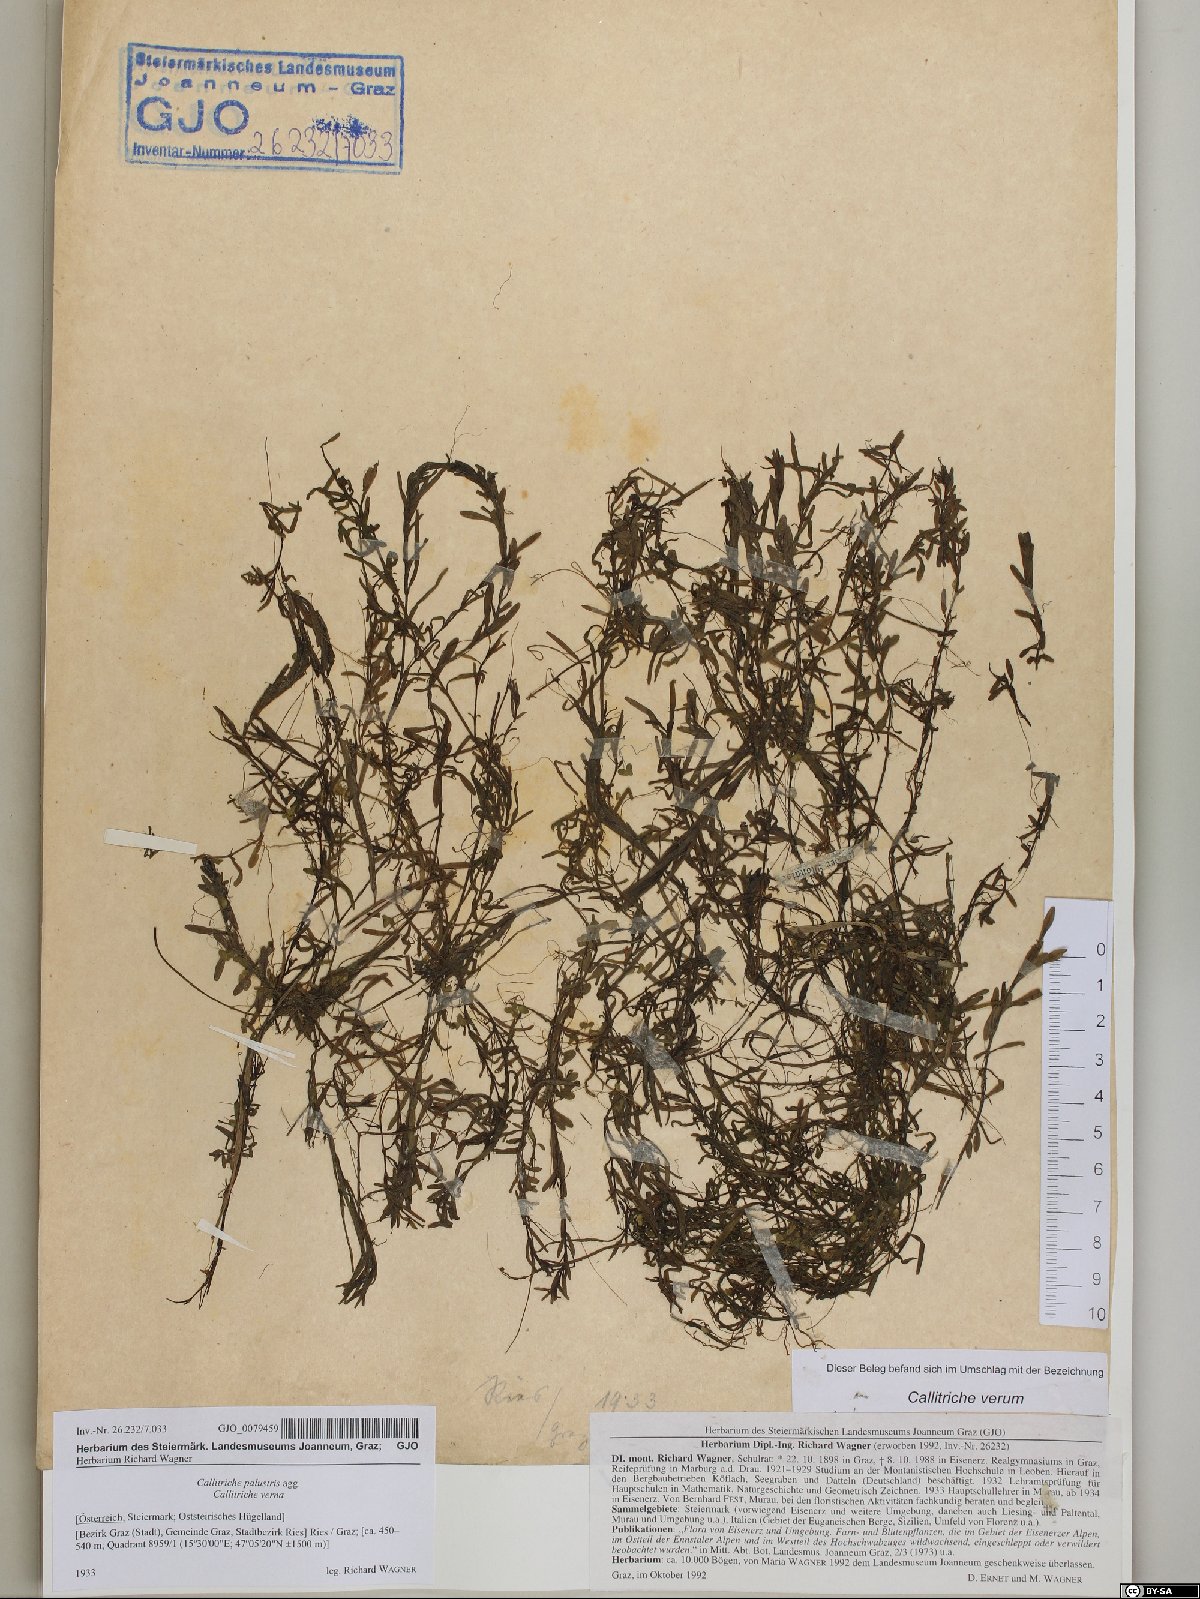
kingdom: Plantae
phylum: Tracheophyta
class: Magnoliopsida
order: Lamiales
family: Plantaginaceae
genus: Callitriche
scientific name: Callitriche palustris
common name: Spring water-starwort
